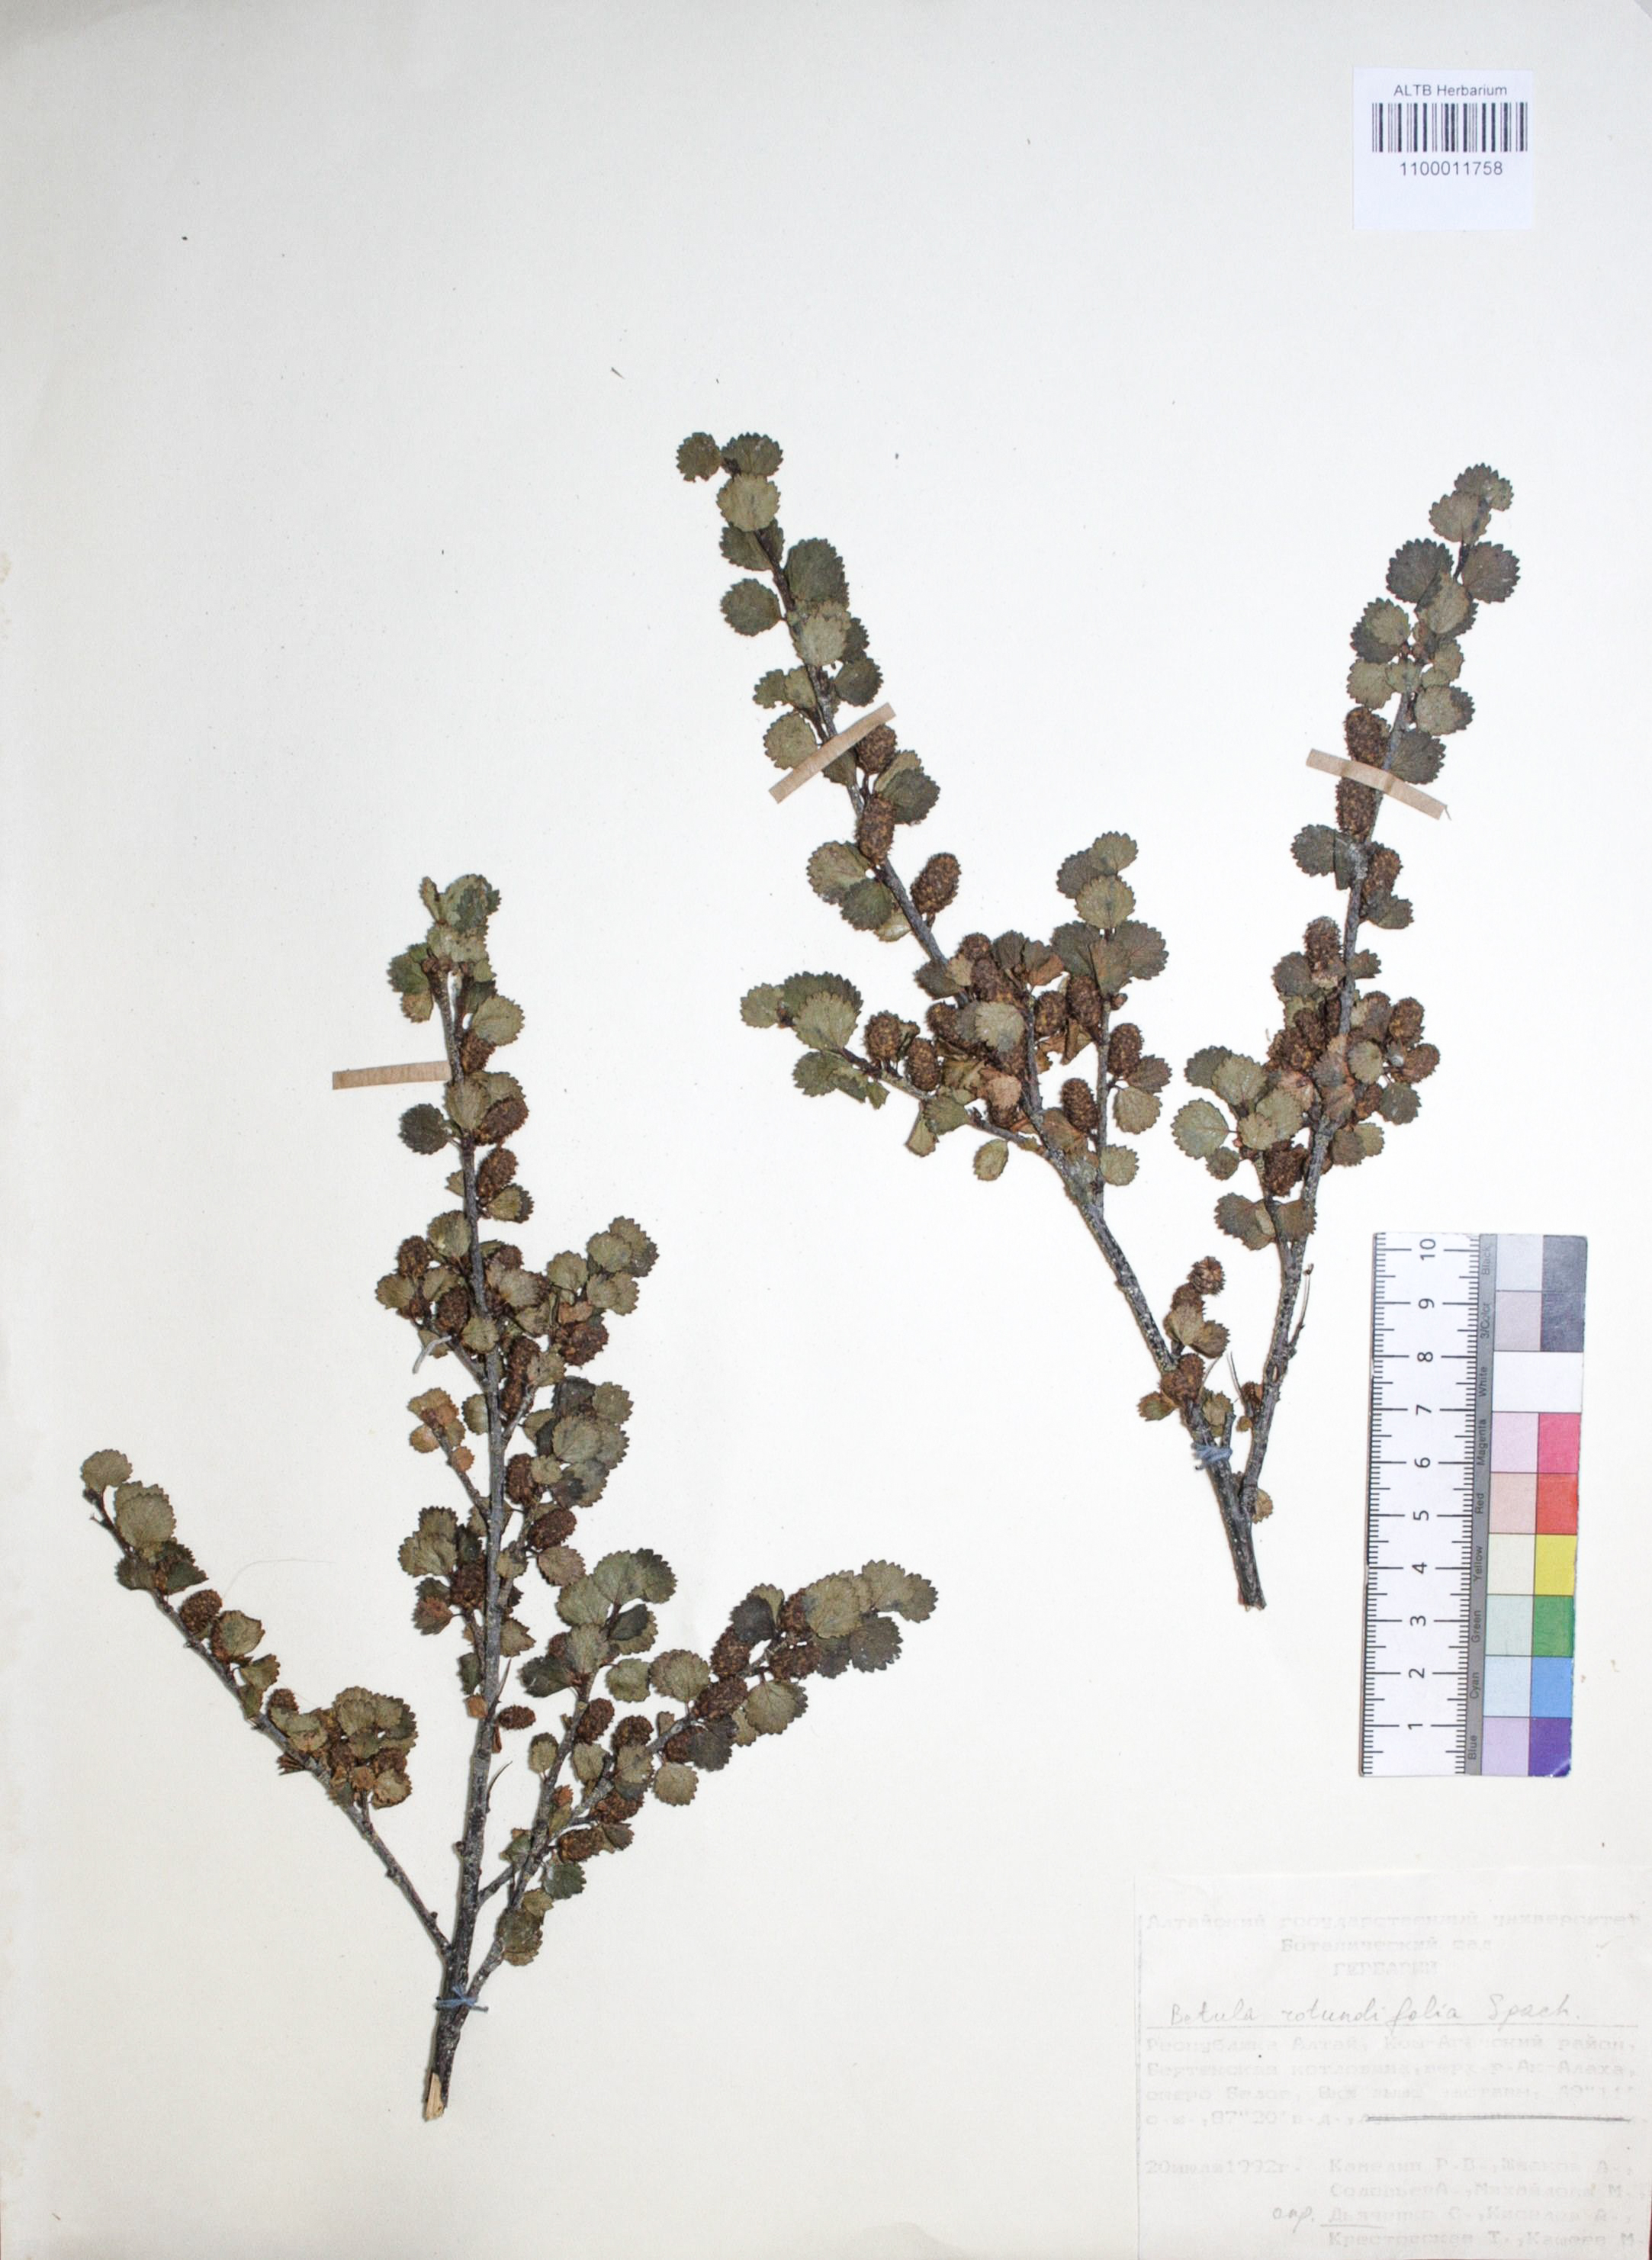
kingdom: Plantae
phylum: Tracheophyta
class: Magnoliopsida
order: Fagales
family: Betulaceae
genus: Betula
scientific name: Betula glandulosa
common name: Dwarf birch
